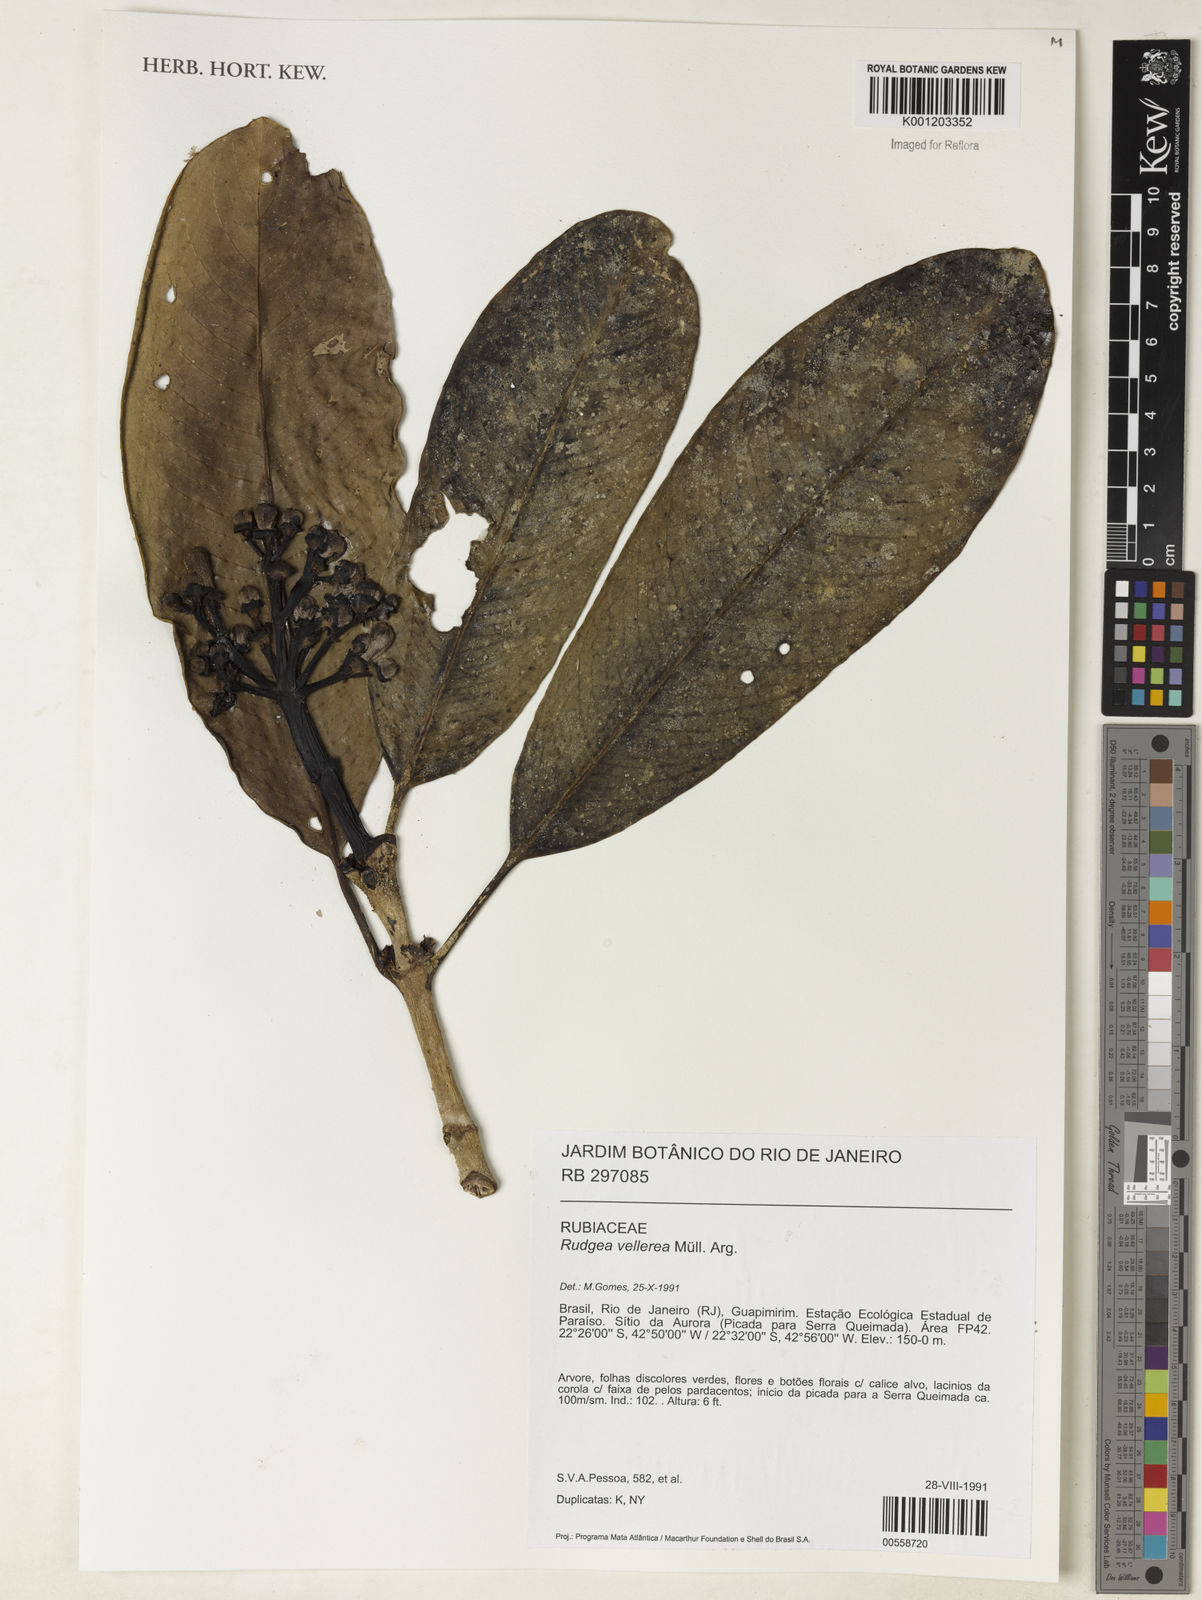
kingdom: Plantae
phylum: Tracheophyta
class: Magnoliopsida
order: Gentianales
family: Rubiaceae
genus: Rudgea
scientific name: Rudgea
